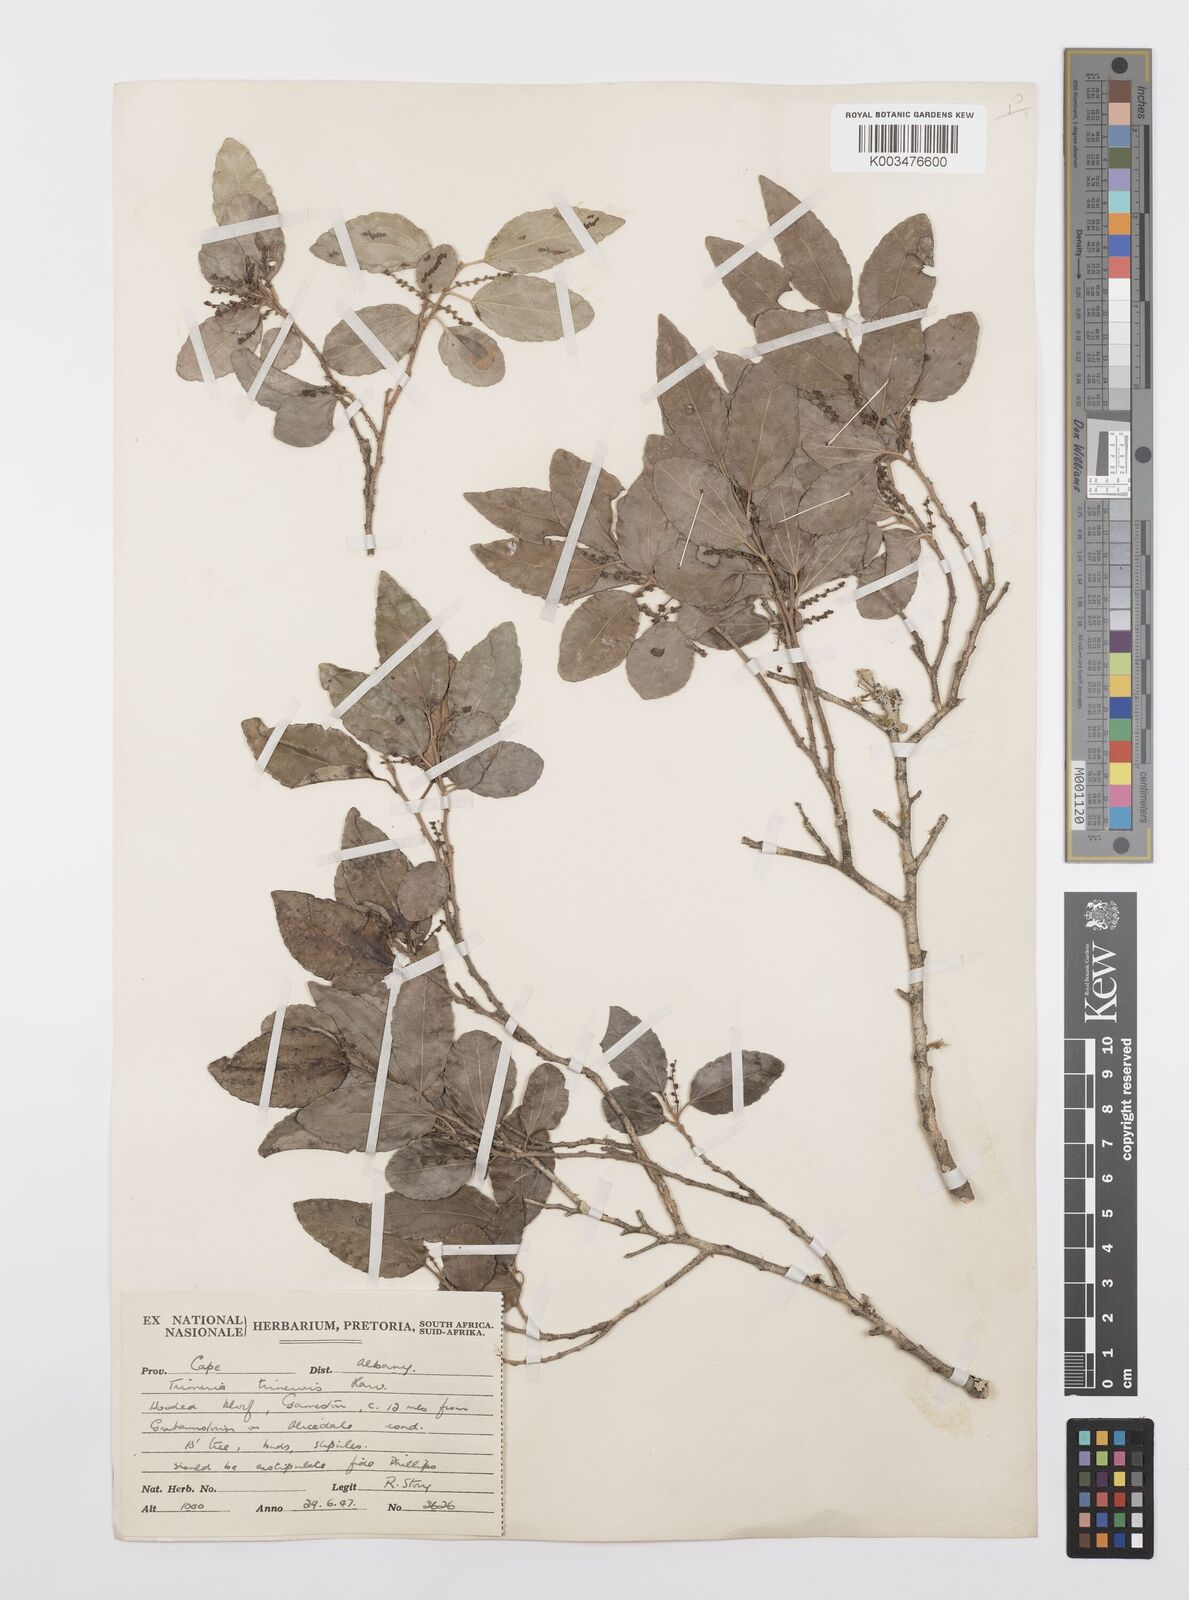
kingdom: Plantae
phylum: Tracheophyta
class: Magnoliopsida
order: Malpighiales
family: Salicaceae
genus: Trimeria
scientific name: Trimeria trinervis
